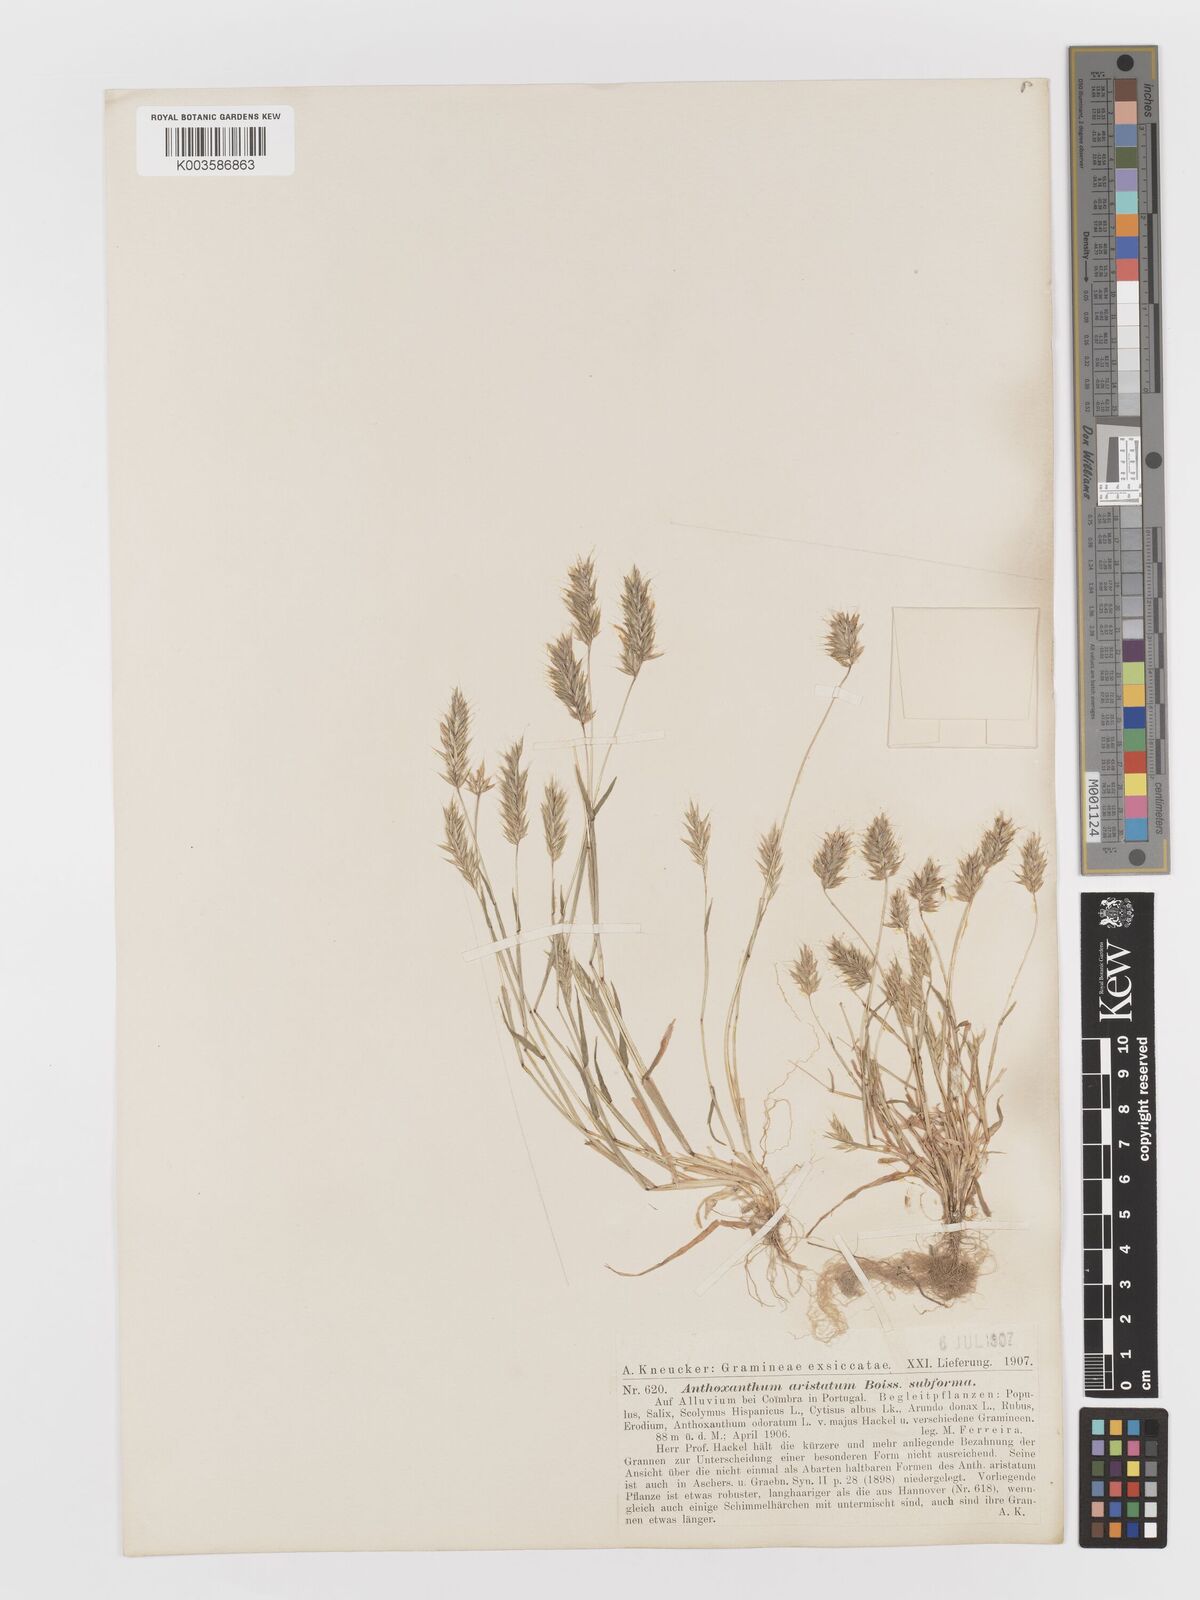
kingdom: Plantae
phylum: Tracheophyta
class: Liliopsida
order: Poales
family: Poaceae
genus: Anthoxanthum
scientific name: Anthoxanthum
